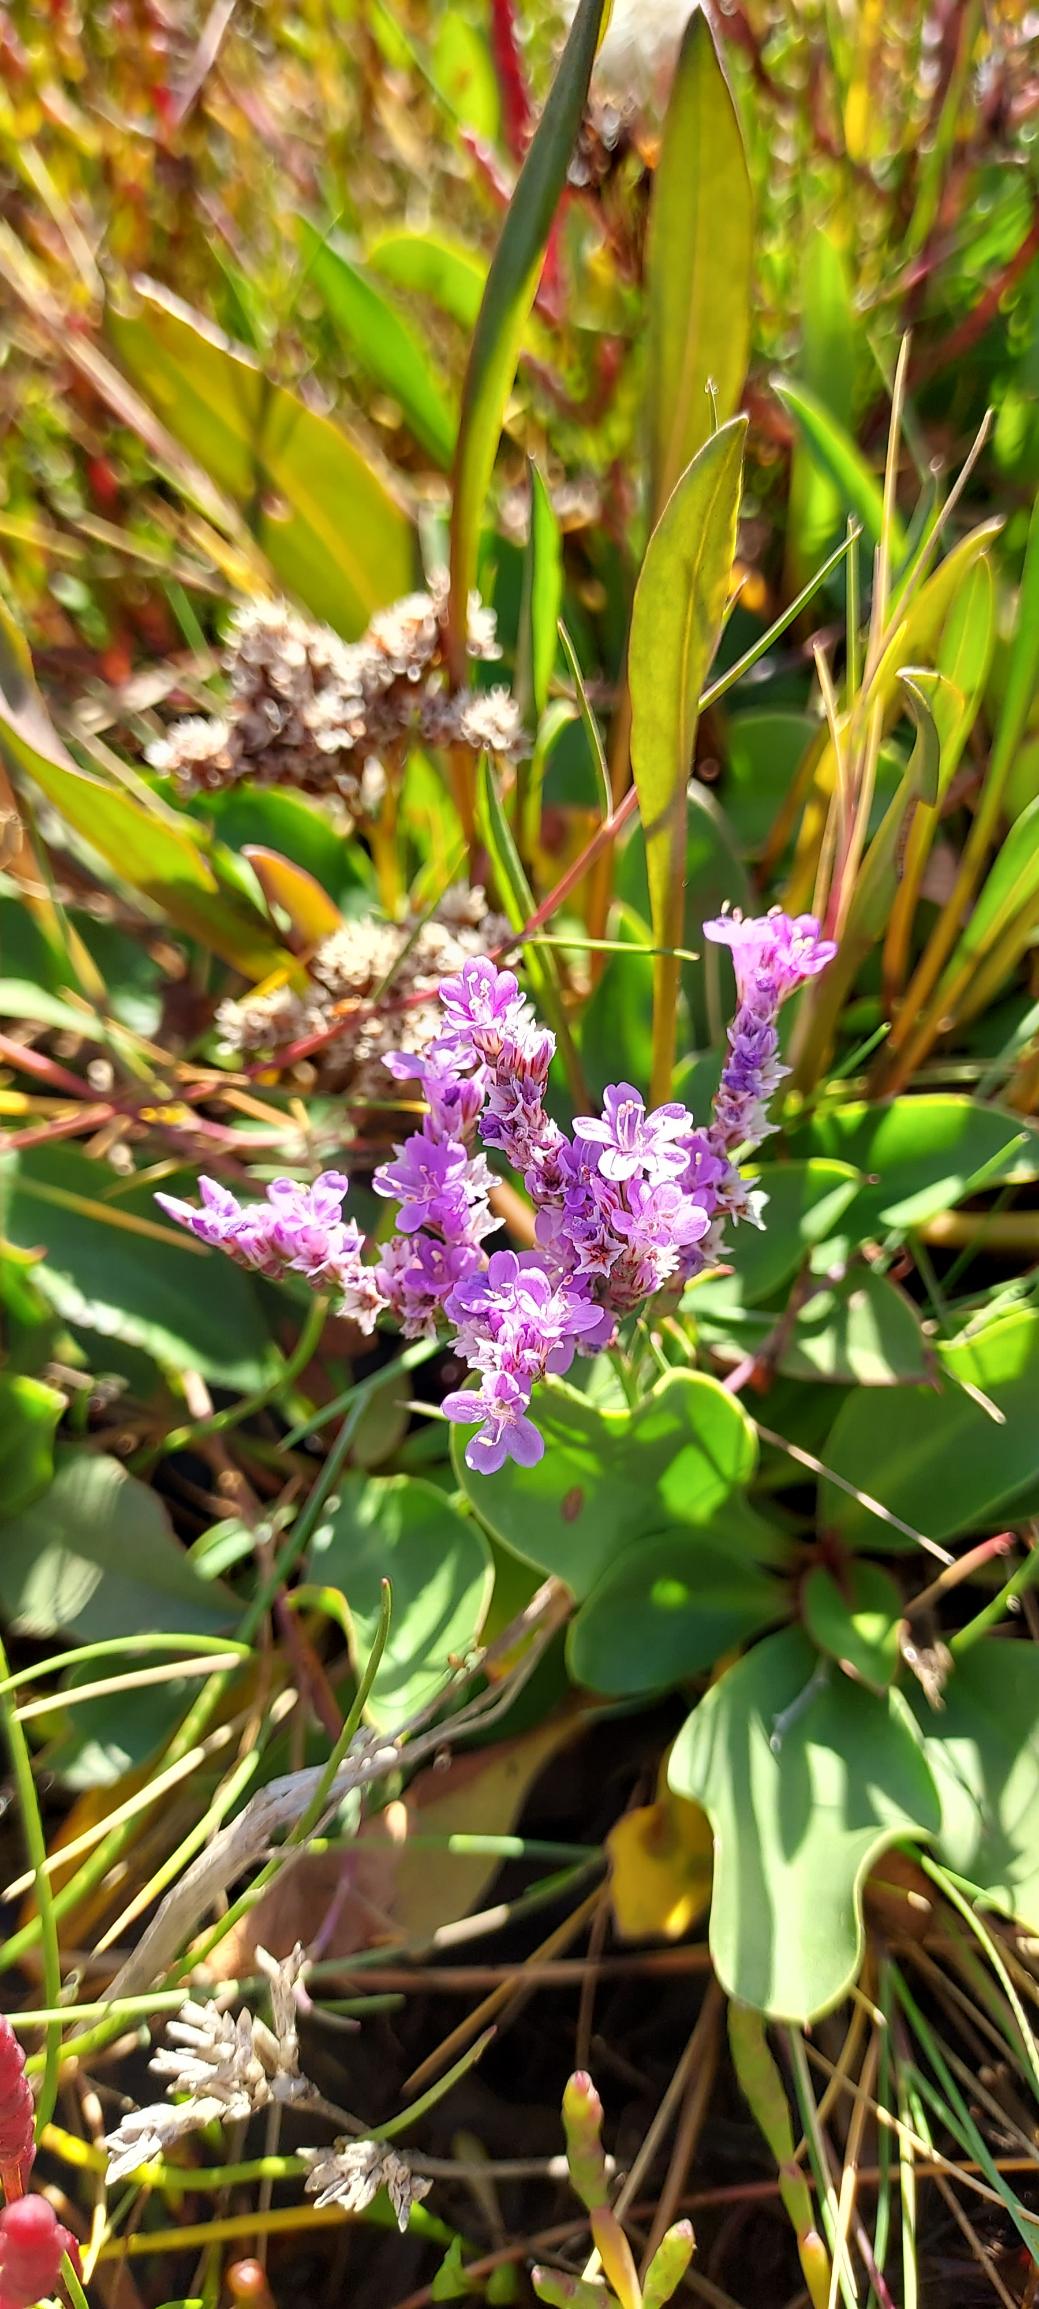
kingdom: Plantae
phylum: Tracheophyta
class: Magnoliopsida
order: Caryophyllales
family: Plumbaginaceae
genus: Limonium
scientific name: Limonium vulgare
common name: Tætblomstret hindebæger
